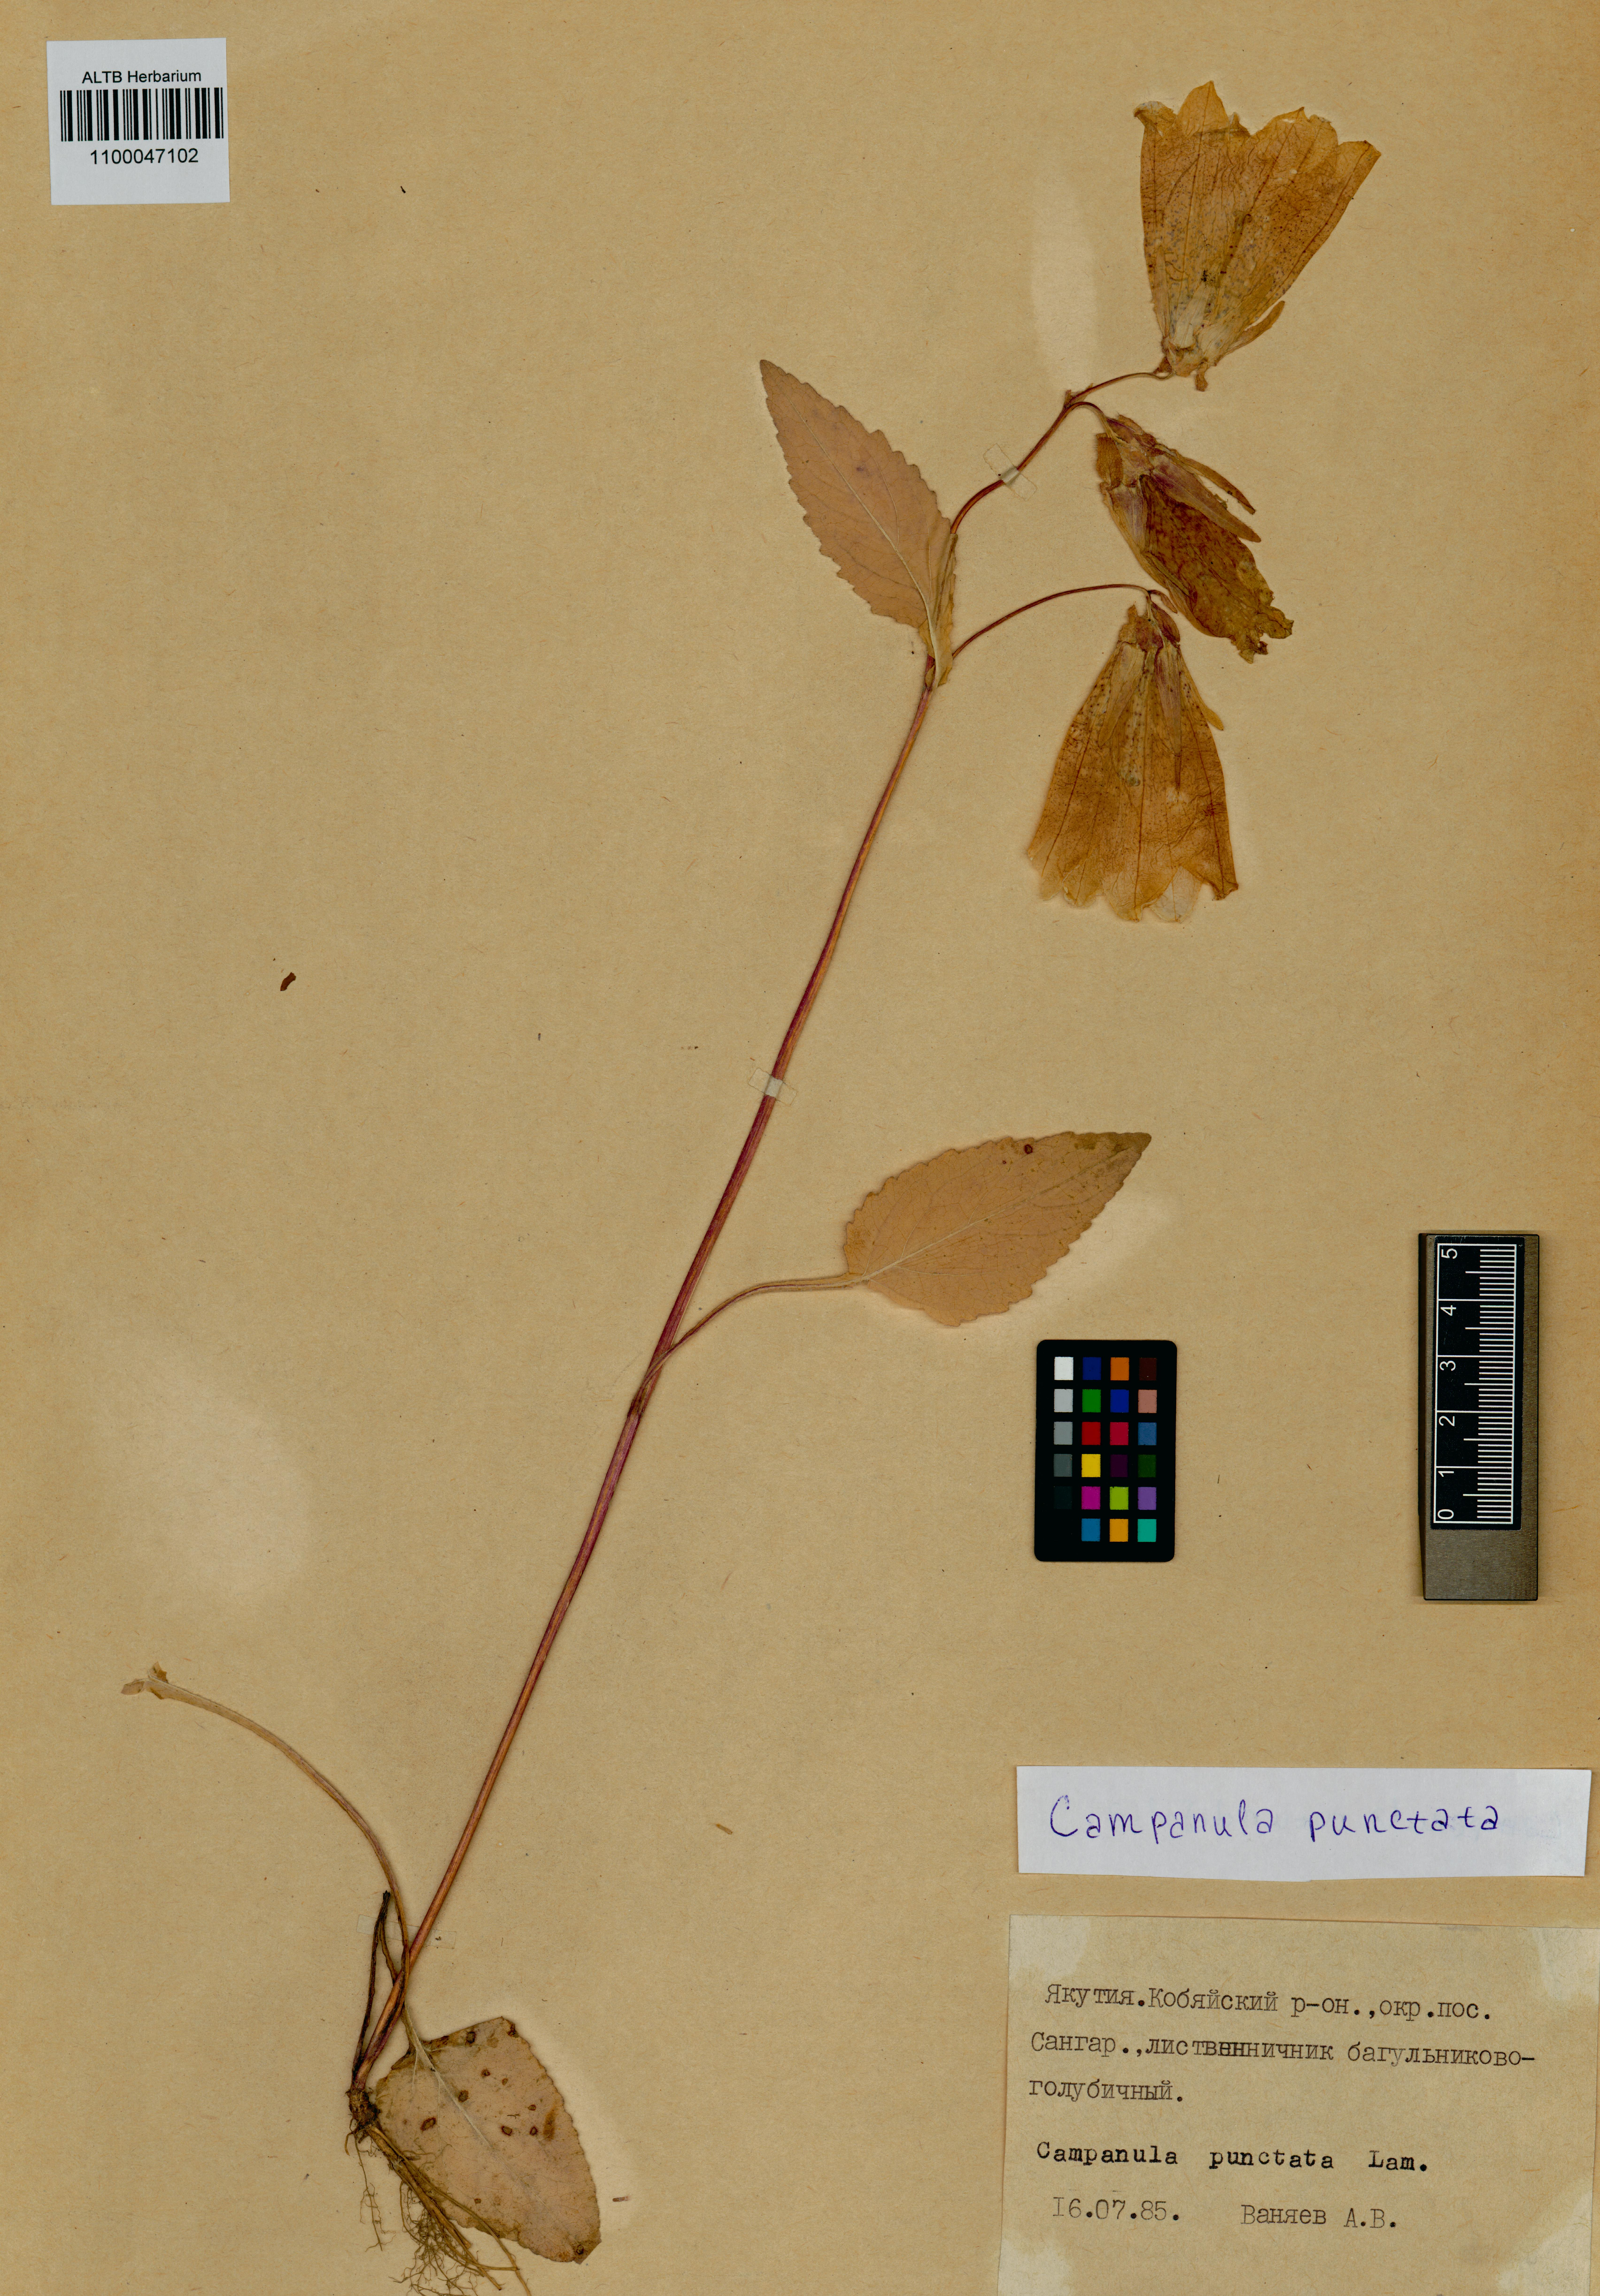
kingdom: Plantae
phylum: Tracheophyta
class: Magnoliopsida
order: Asterales
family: Campanulaceae
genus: Campanula
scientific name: Campanula punctata
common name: Spotted bellflower
